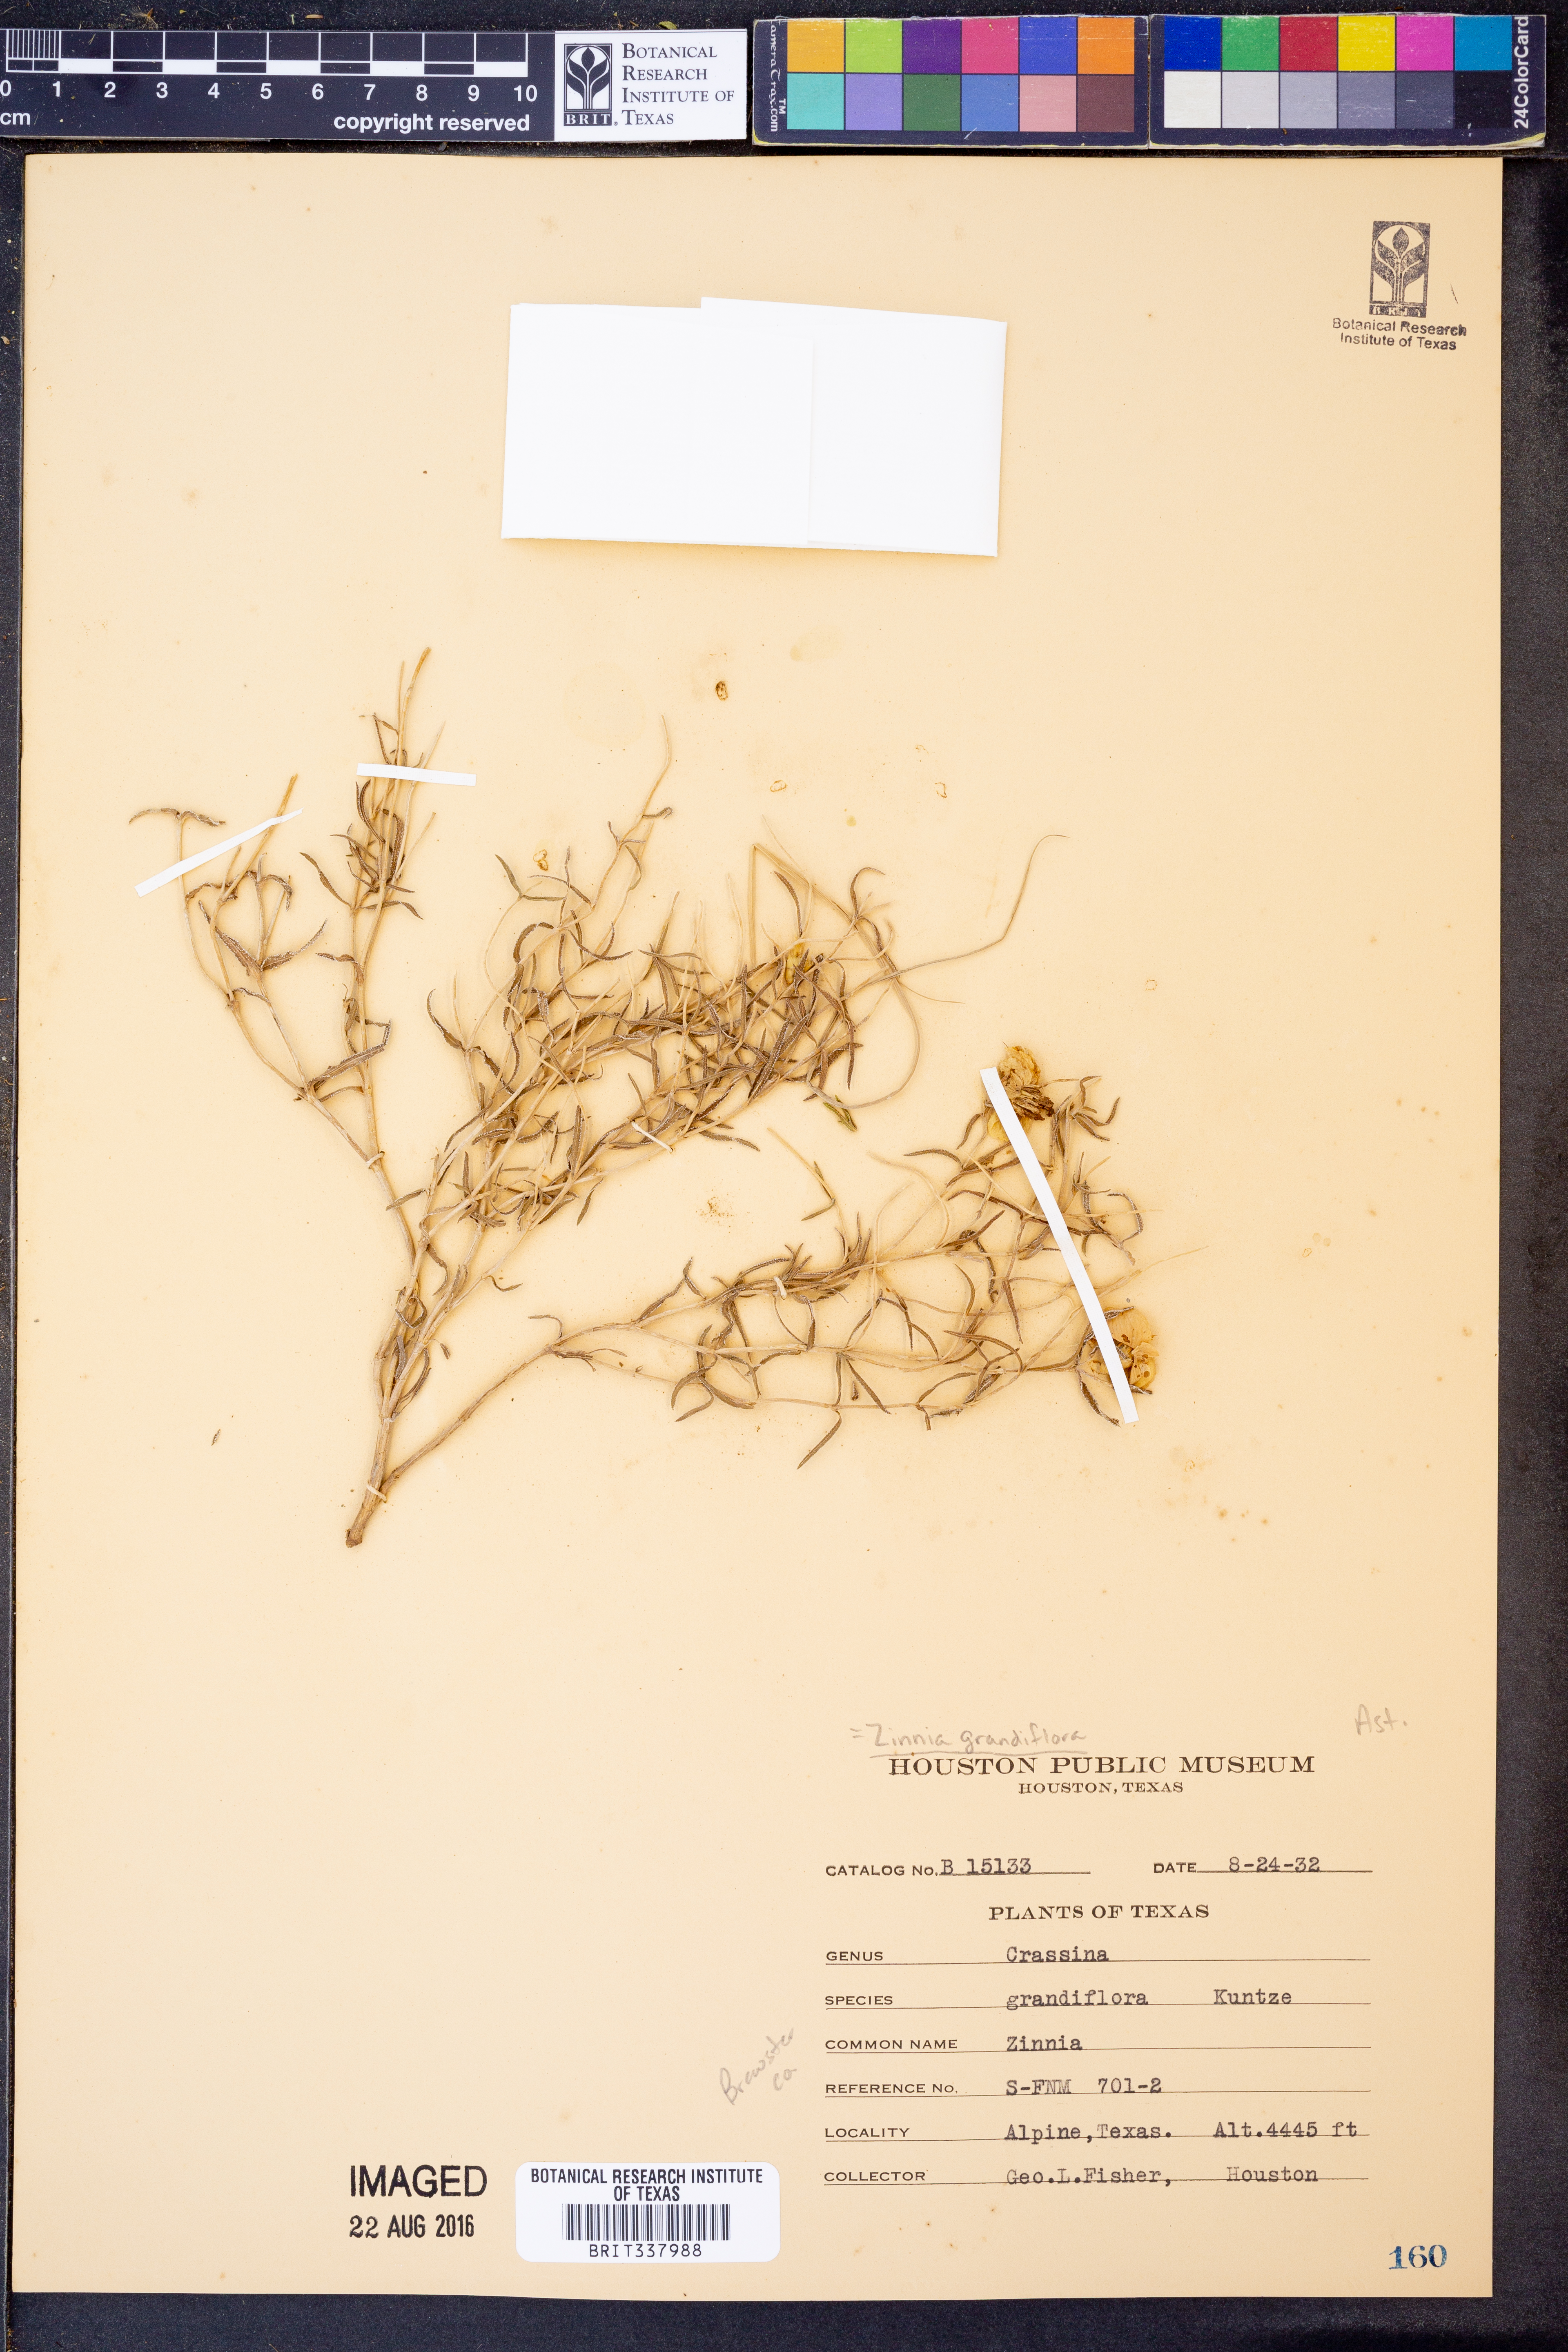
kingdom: Plantae
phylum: Tracheophyta
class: Magnoliopsida
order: Asterales
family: Asteraceae
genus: Zinnia
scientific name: Zinnia grandiflora
